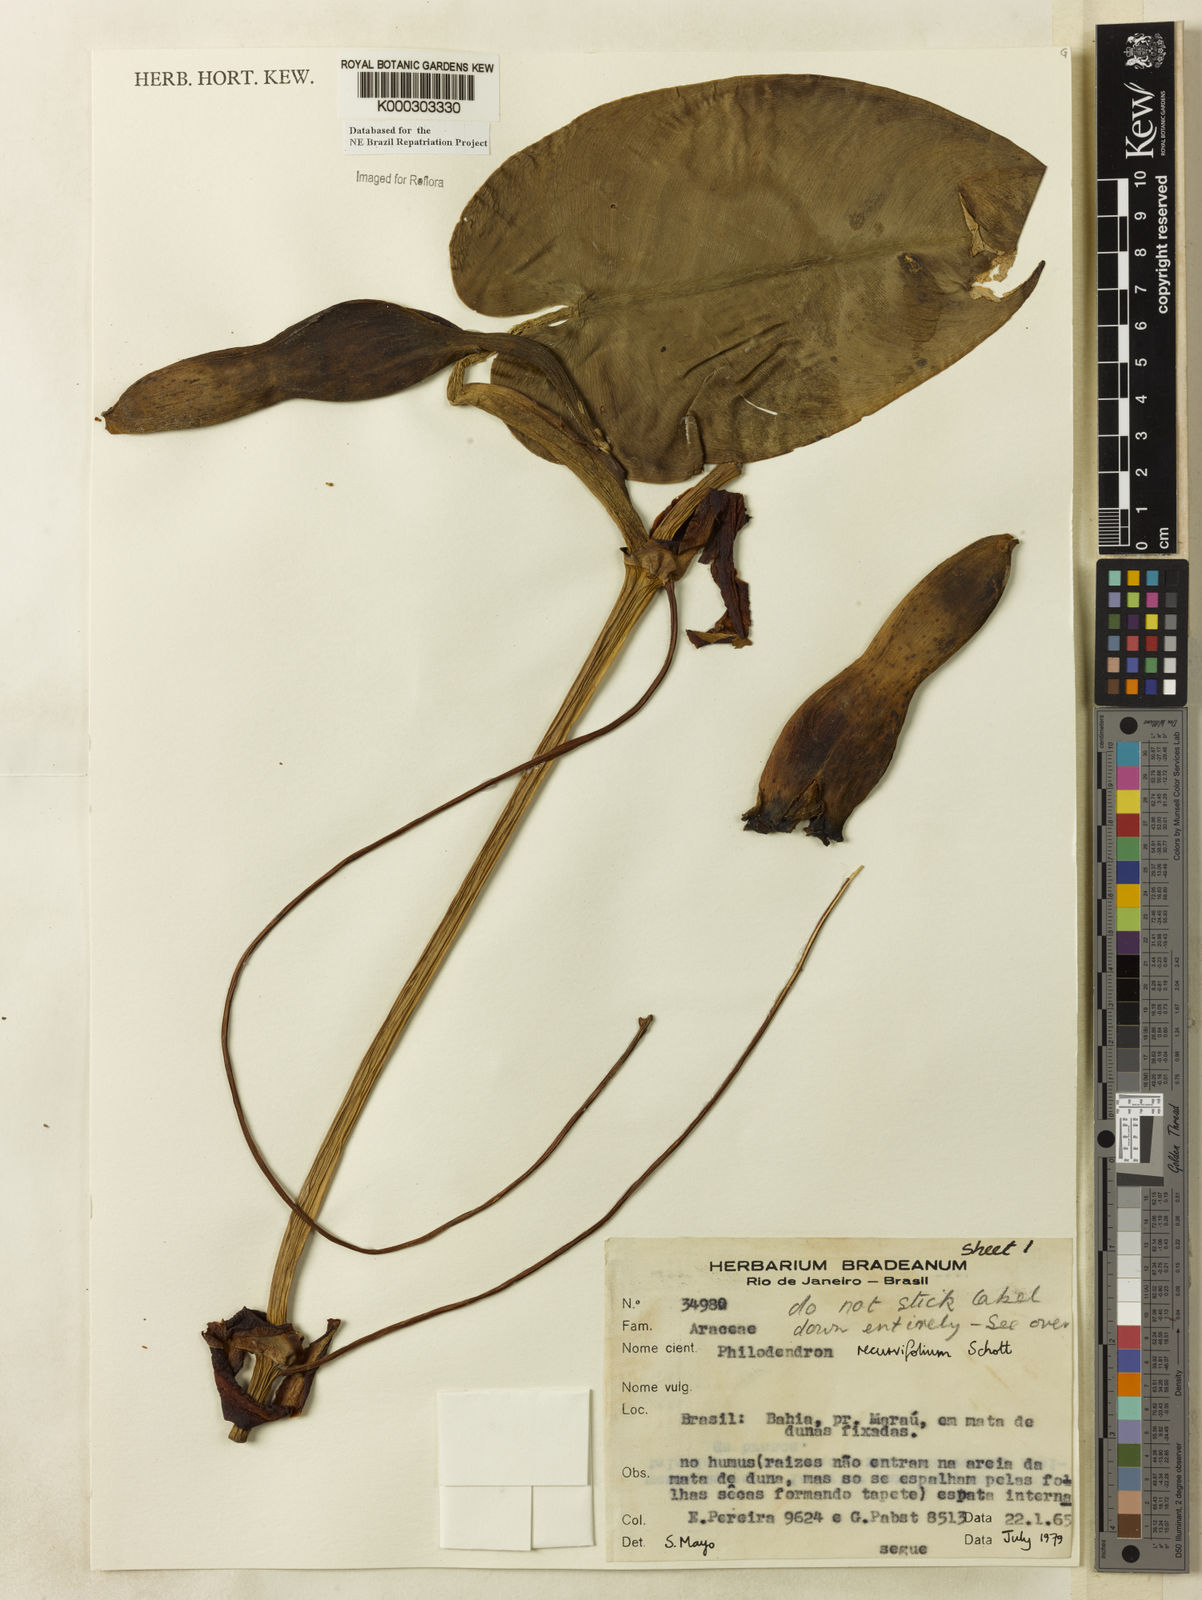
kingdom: Plantae
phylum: Tracheophyta
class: Liliopsida
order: Alismatales
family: Araceae
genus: Philodendron
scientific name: Philodendron recurvifolium
